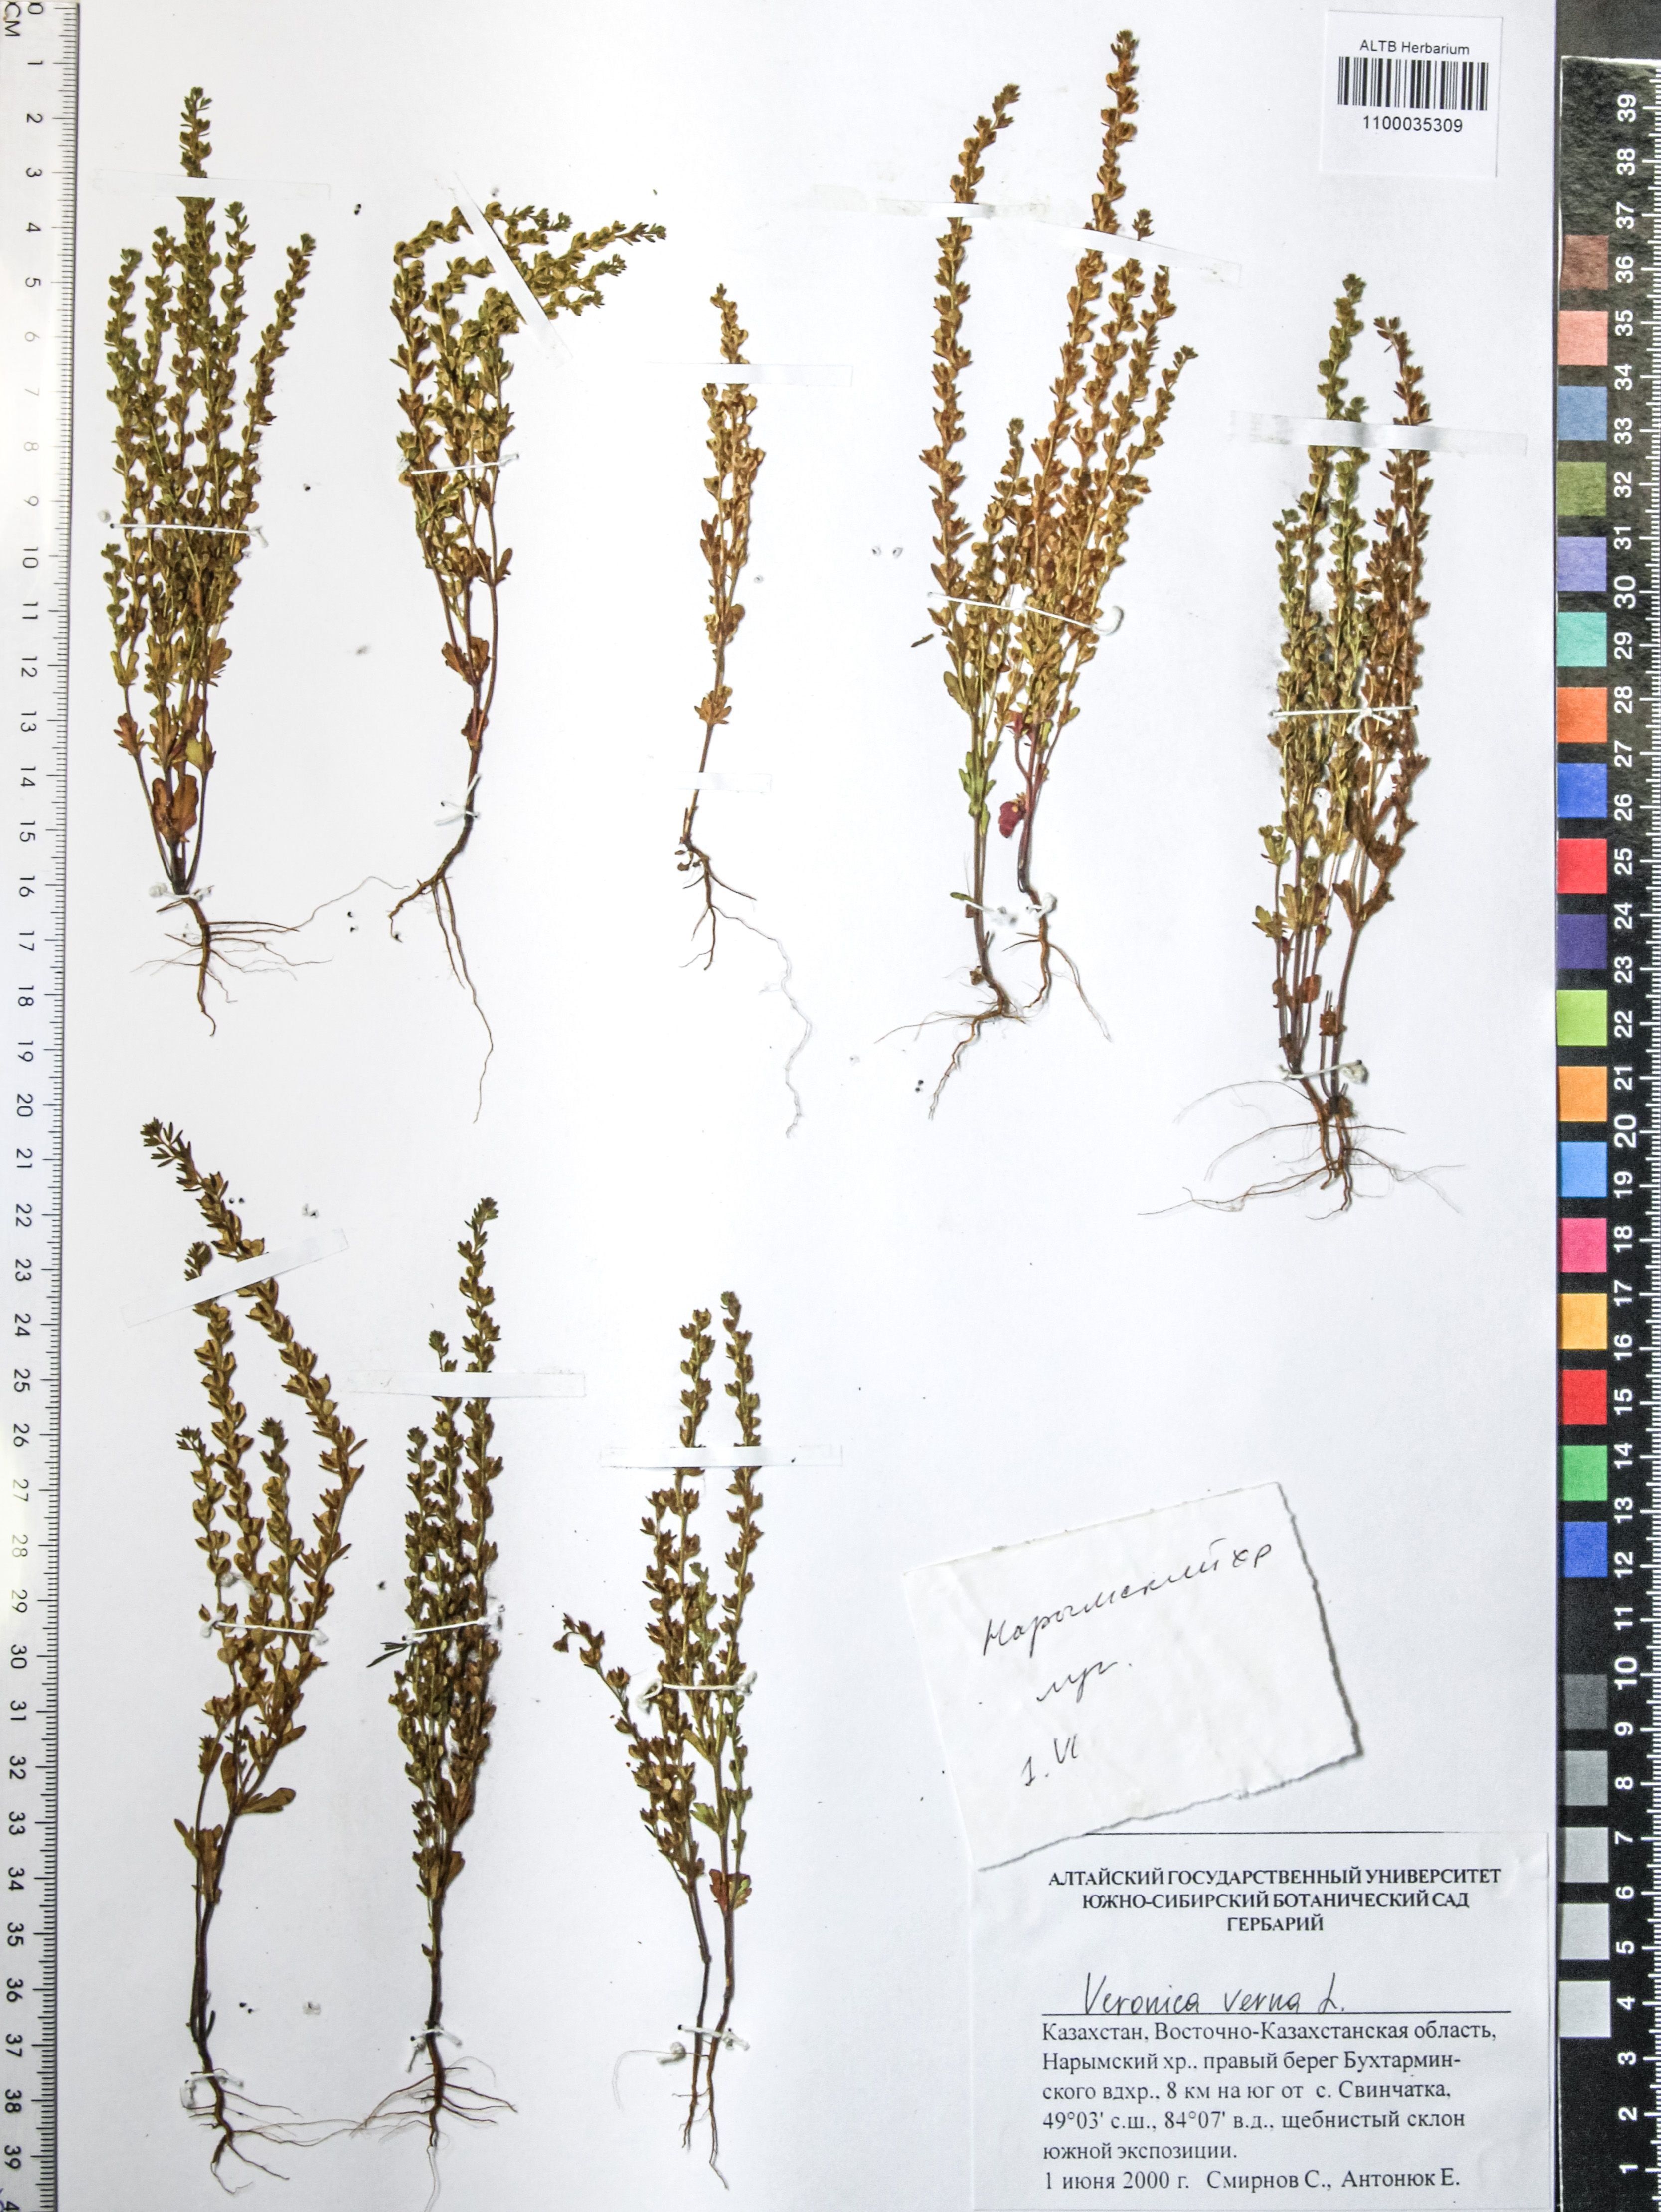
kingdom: Plantae
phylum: Tracheophyta
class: Magnoliopsida
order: Lamiales
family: Plantaginaceae
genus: Veronica
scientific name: Veronica verna
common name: Spring speedwell
